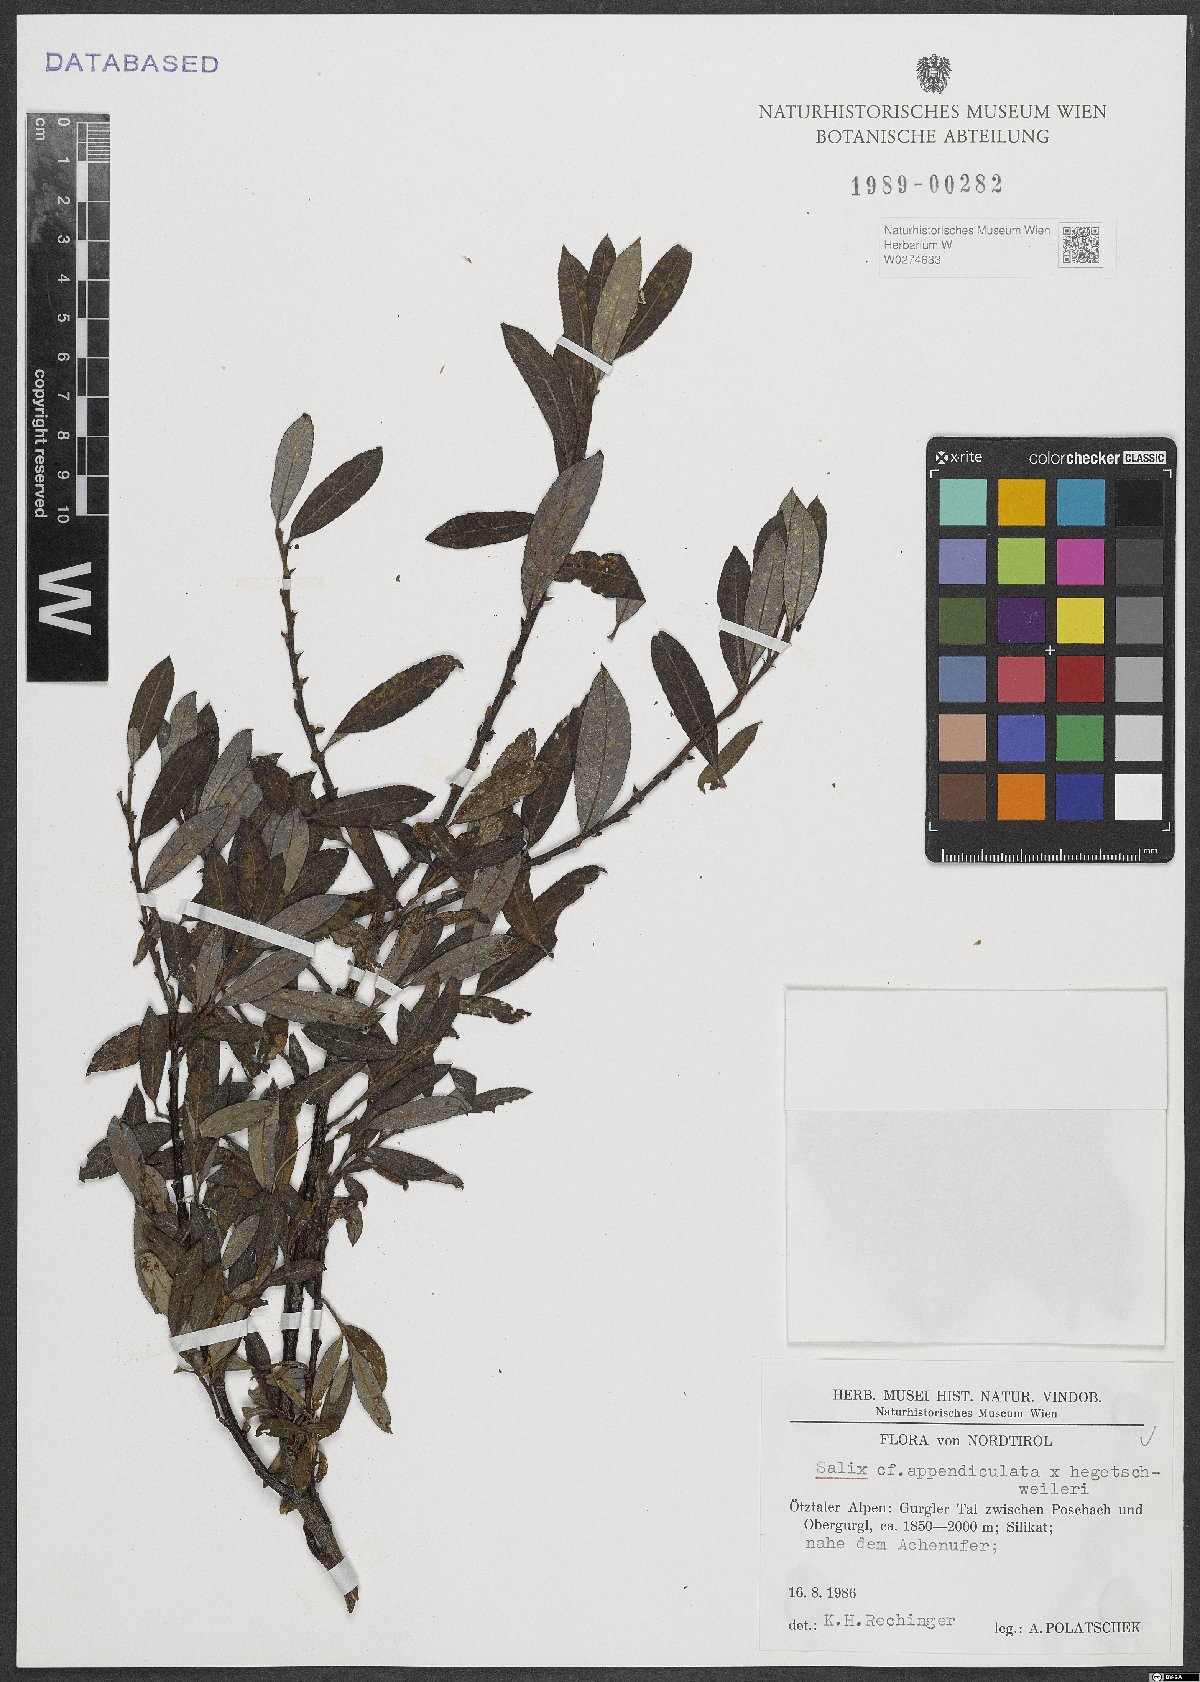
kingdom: Plantae
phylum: Tracheophyta
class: Magnoliopsida
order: Malpighiales
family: Salicaceae
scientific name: Salicaceae
